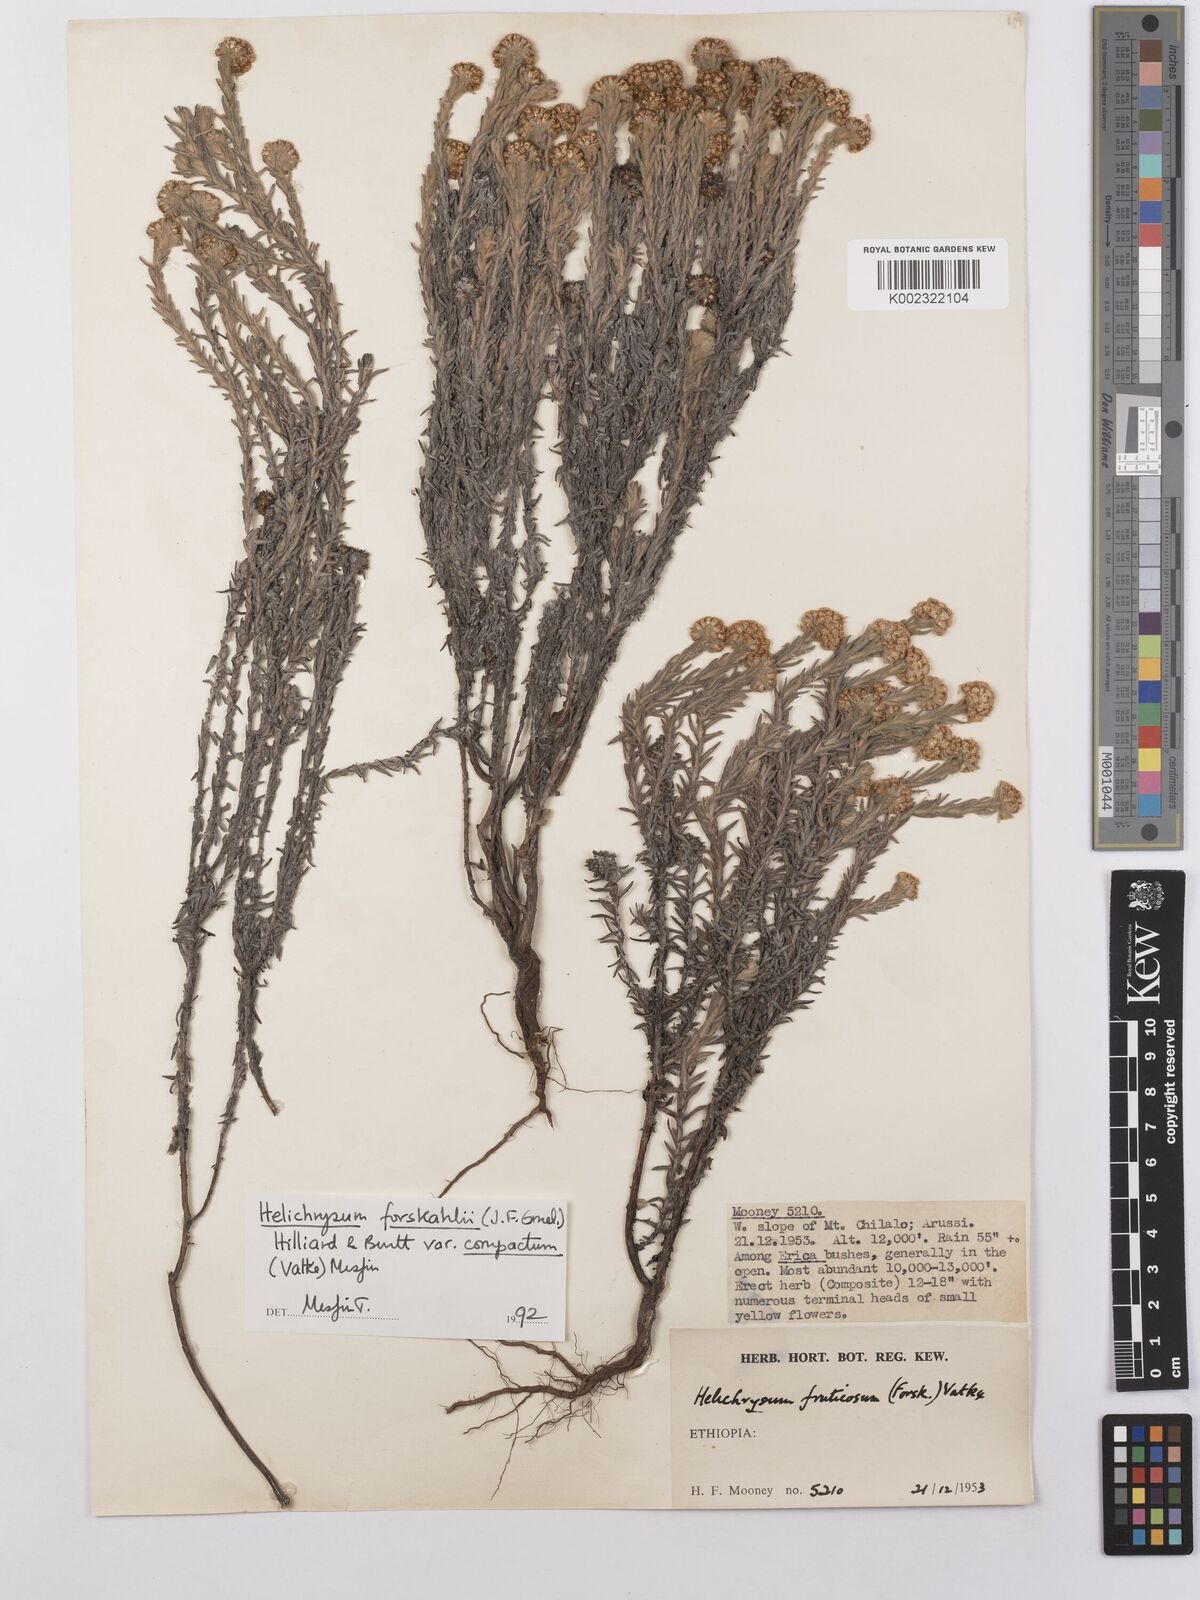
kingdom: Plantae
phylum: Tracheophyta
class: Magnoliopsida
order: Asterales
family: Asteraceae
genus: Helichrysum
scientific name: Helichrysum forskahlii
